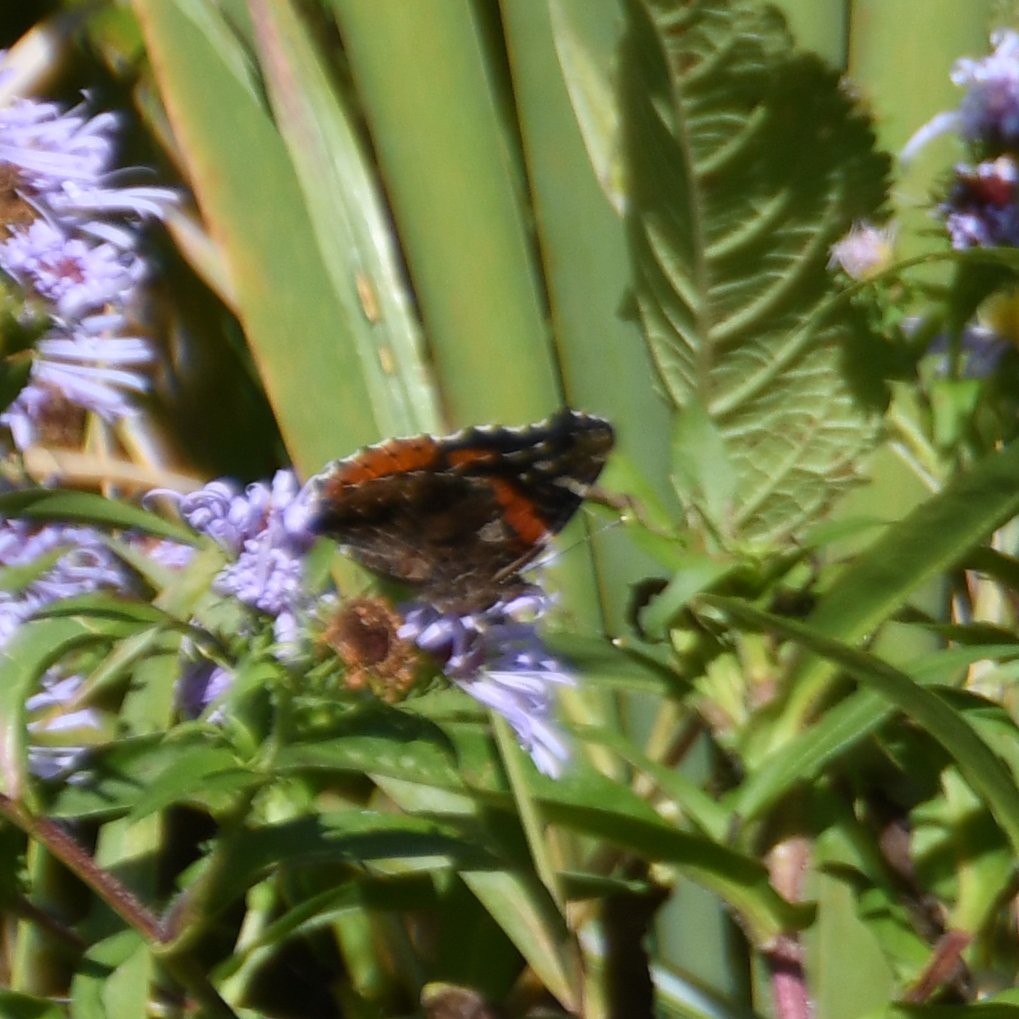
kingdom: Animalia
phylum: Arthropoda
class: Insecta
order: Lepidoptera
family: Nymphalidae
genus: Vanessa
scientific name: Vanessa atalanta
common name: Red Admiral
